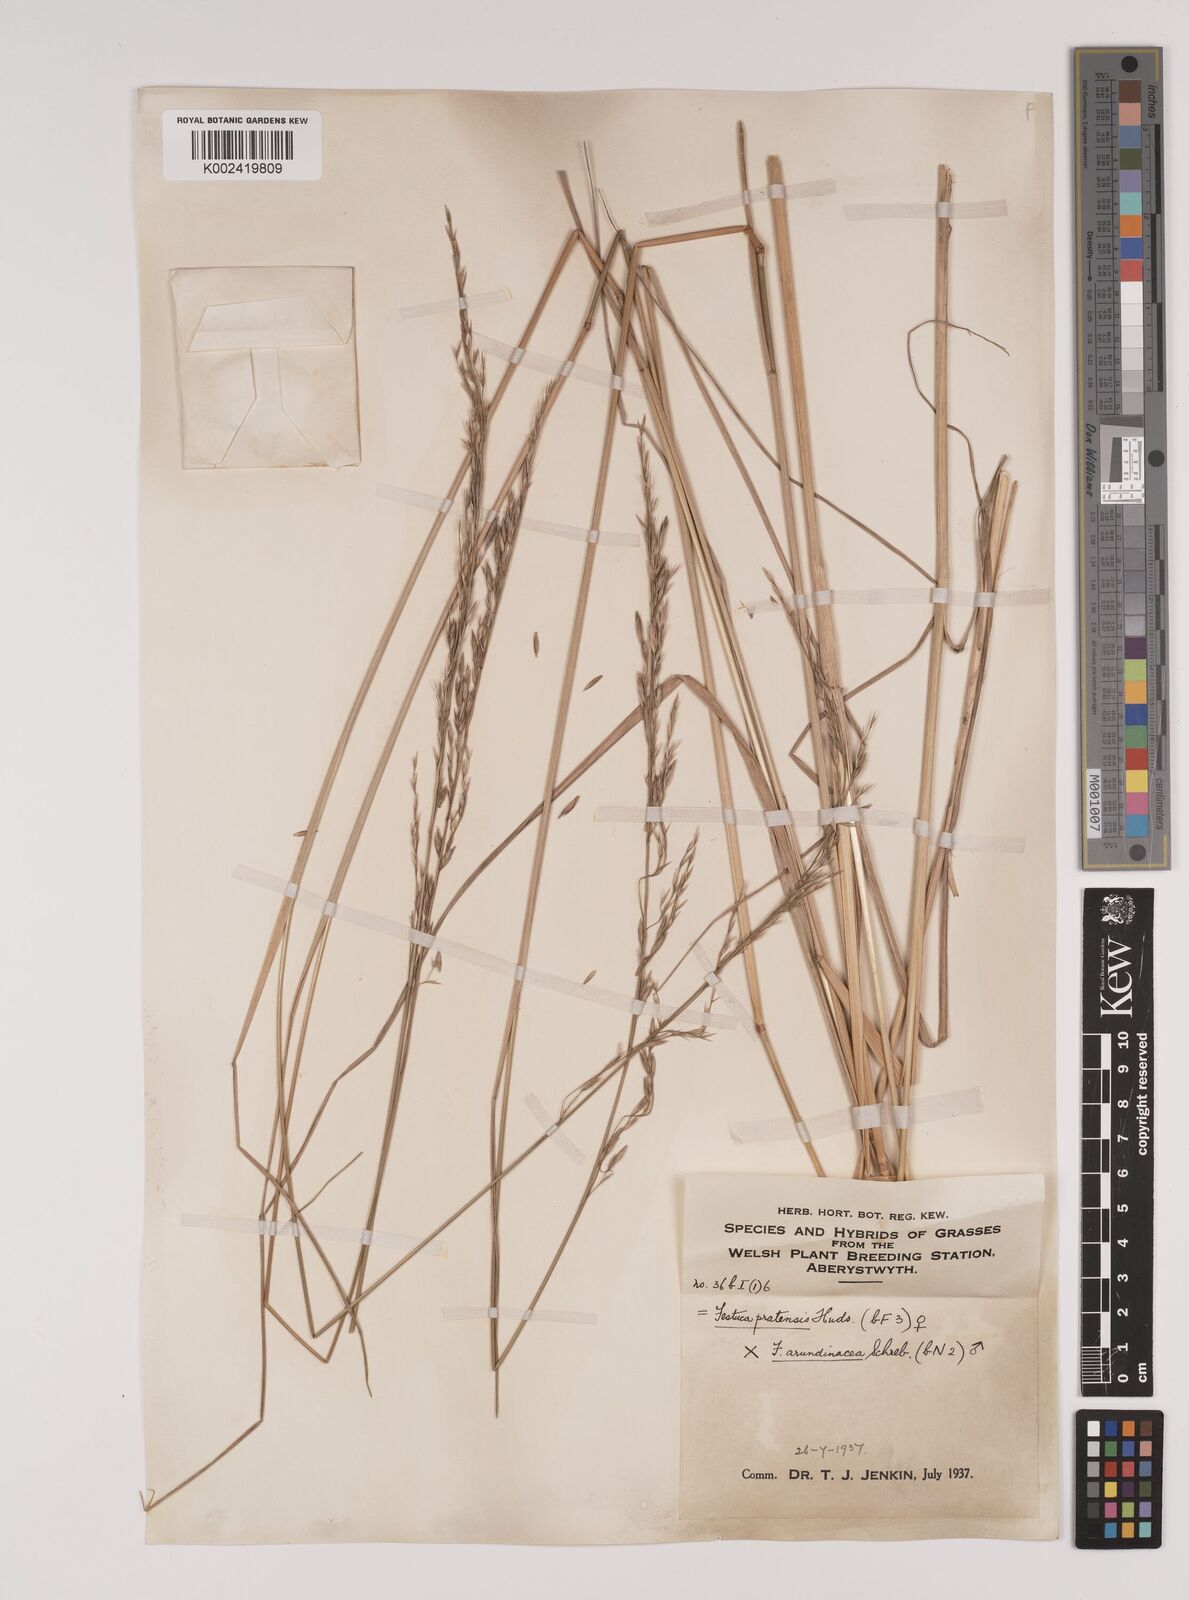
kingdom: Plantae
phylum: Tracheophyta
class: Liliopsida
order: Poales
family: Poaceae
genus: Festuca
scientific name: Festuca rubra
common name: Red fescue
